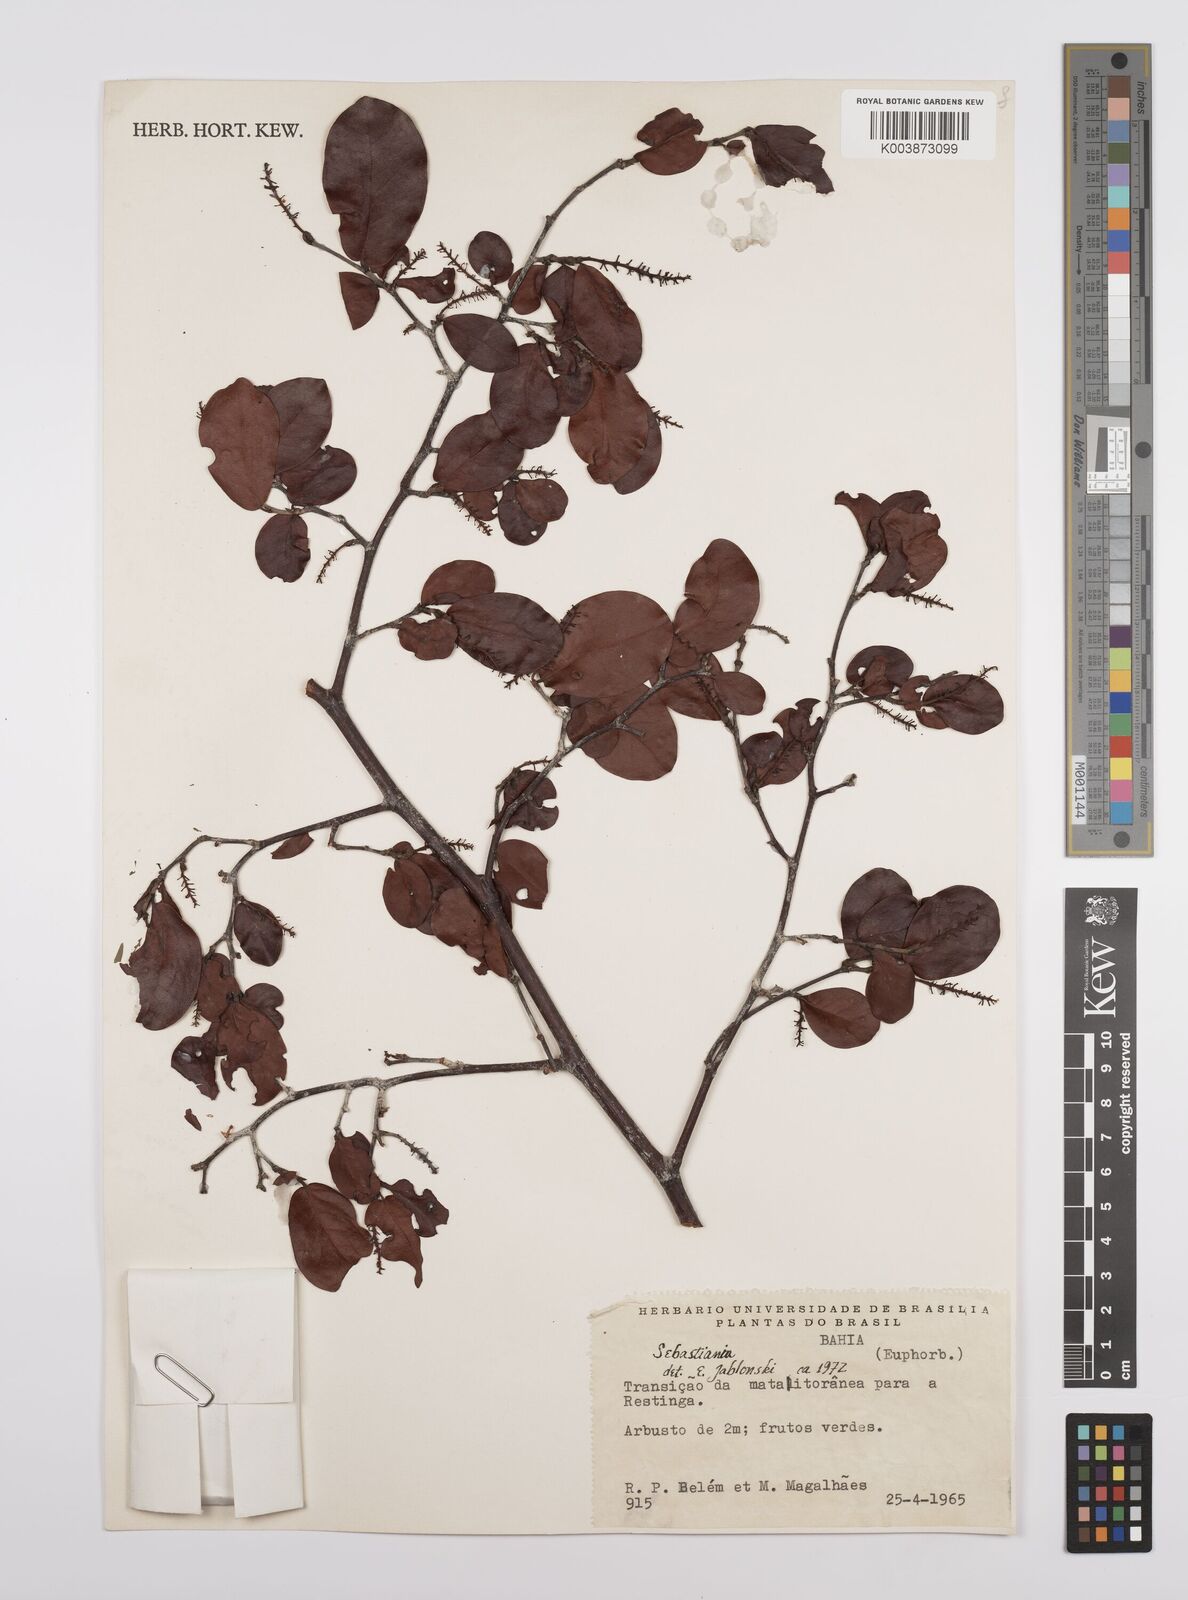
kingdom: Plantae
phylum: Tracheophyta
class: Magnoliopsida
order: Malpighiales
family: Euphorbiaceae
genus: Sebastiania
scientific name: Sebastiania
